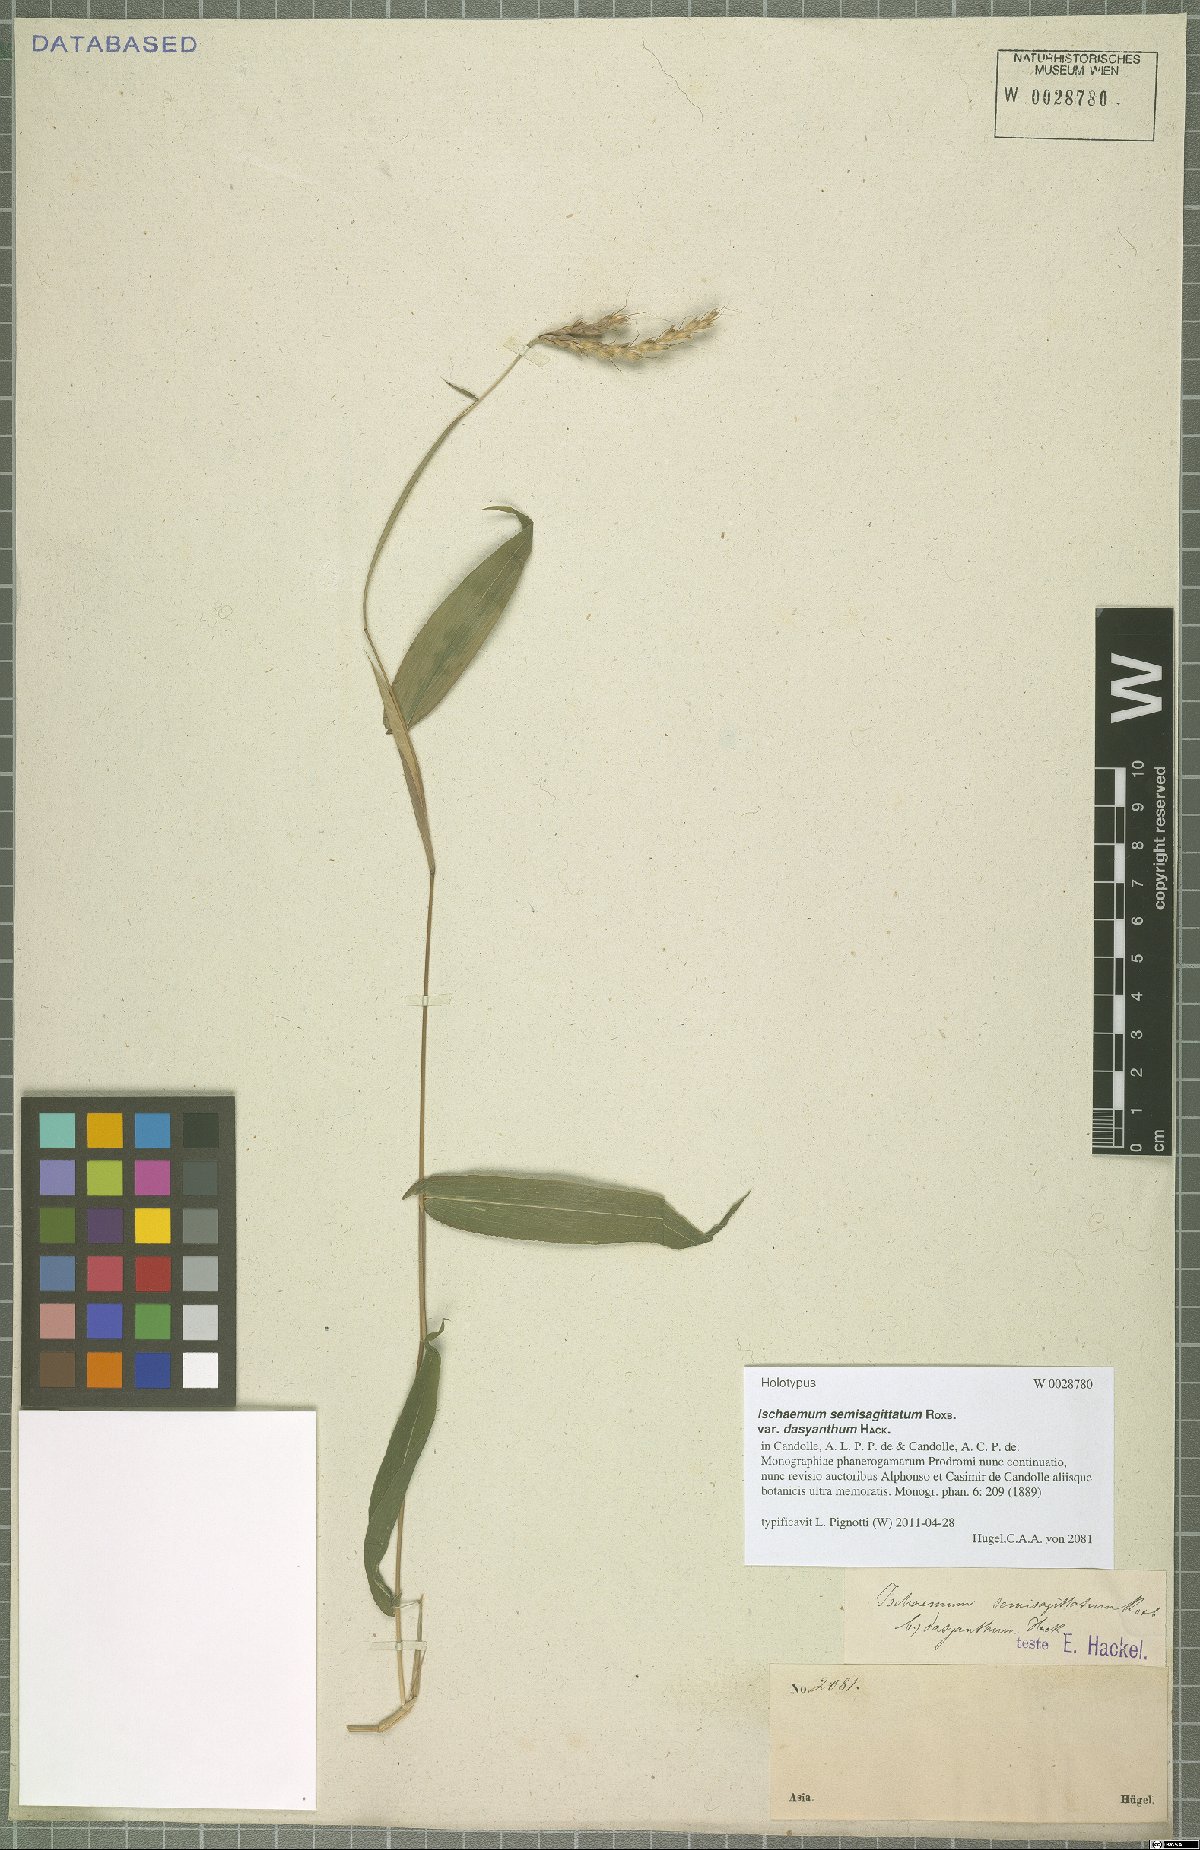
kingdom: Plantae
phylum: Tracheophyta
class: Liliopsida
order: Poales
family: Poaceae
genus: Ischaemum
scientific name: Ischaemum semisagittatum
